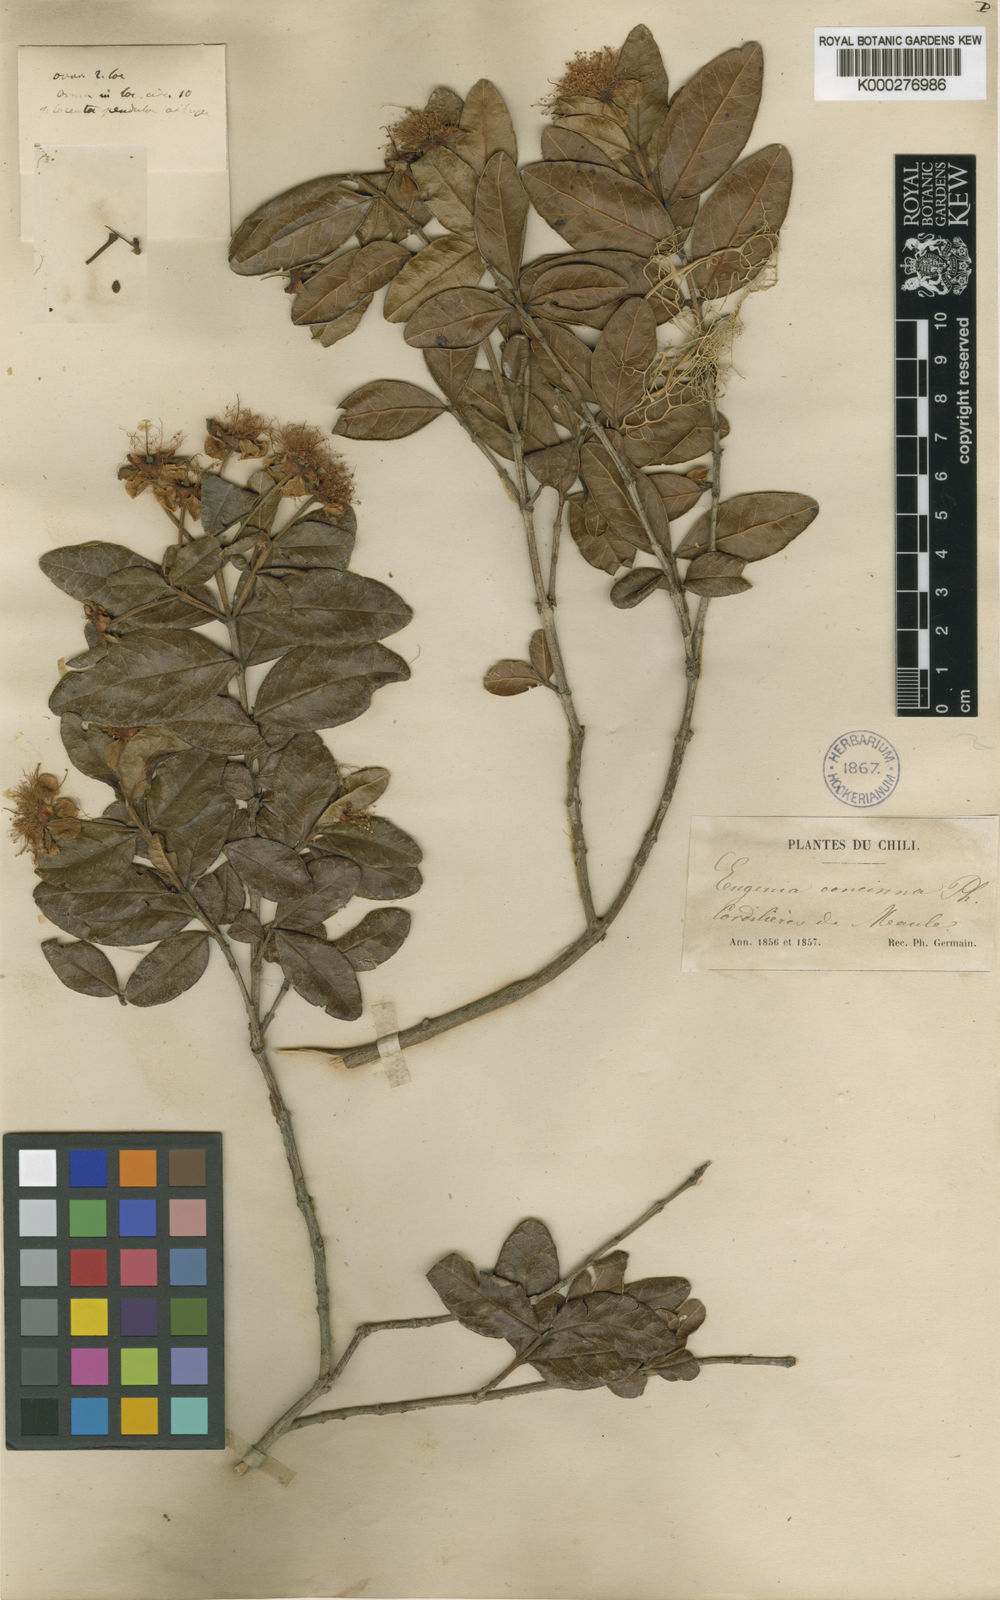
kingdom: Plantae
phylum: Tracheophyta
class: Magnoliopsida
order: Myrtales
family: Myrtaceae
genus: Legrandia
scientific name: Legrandia concinna
